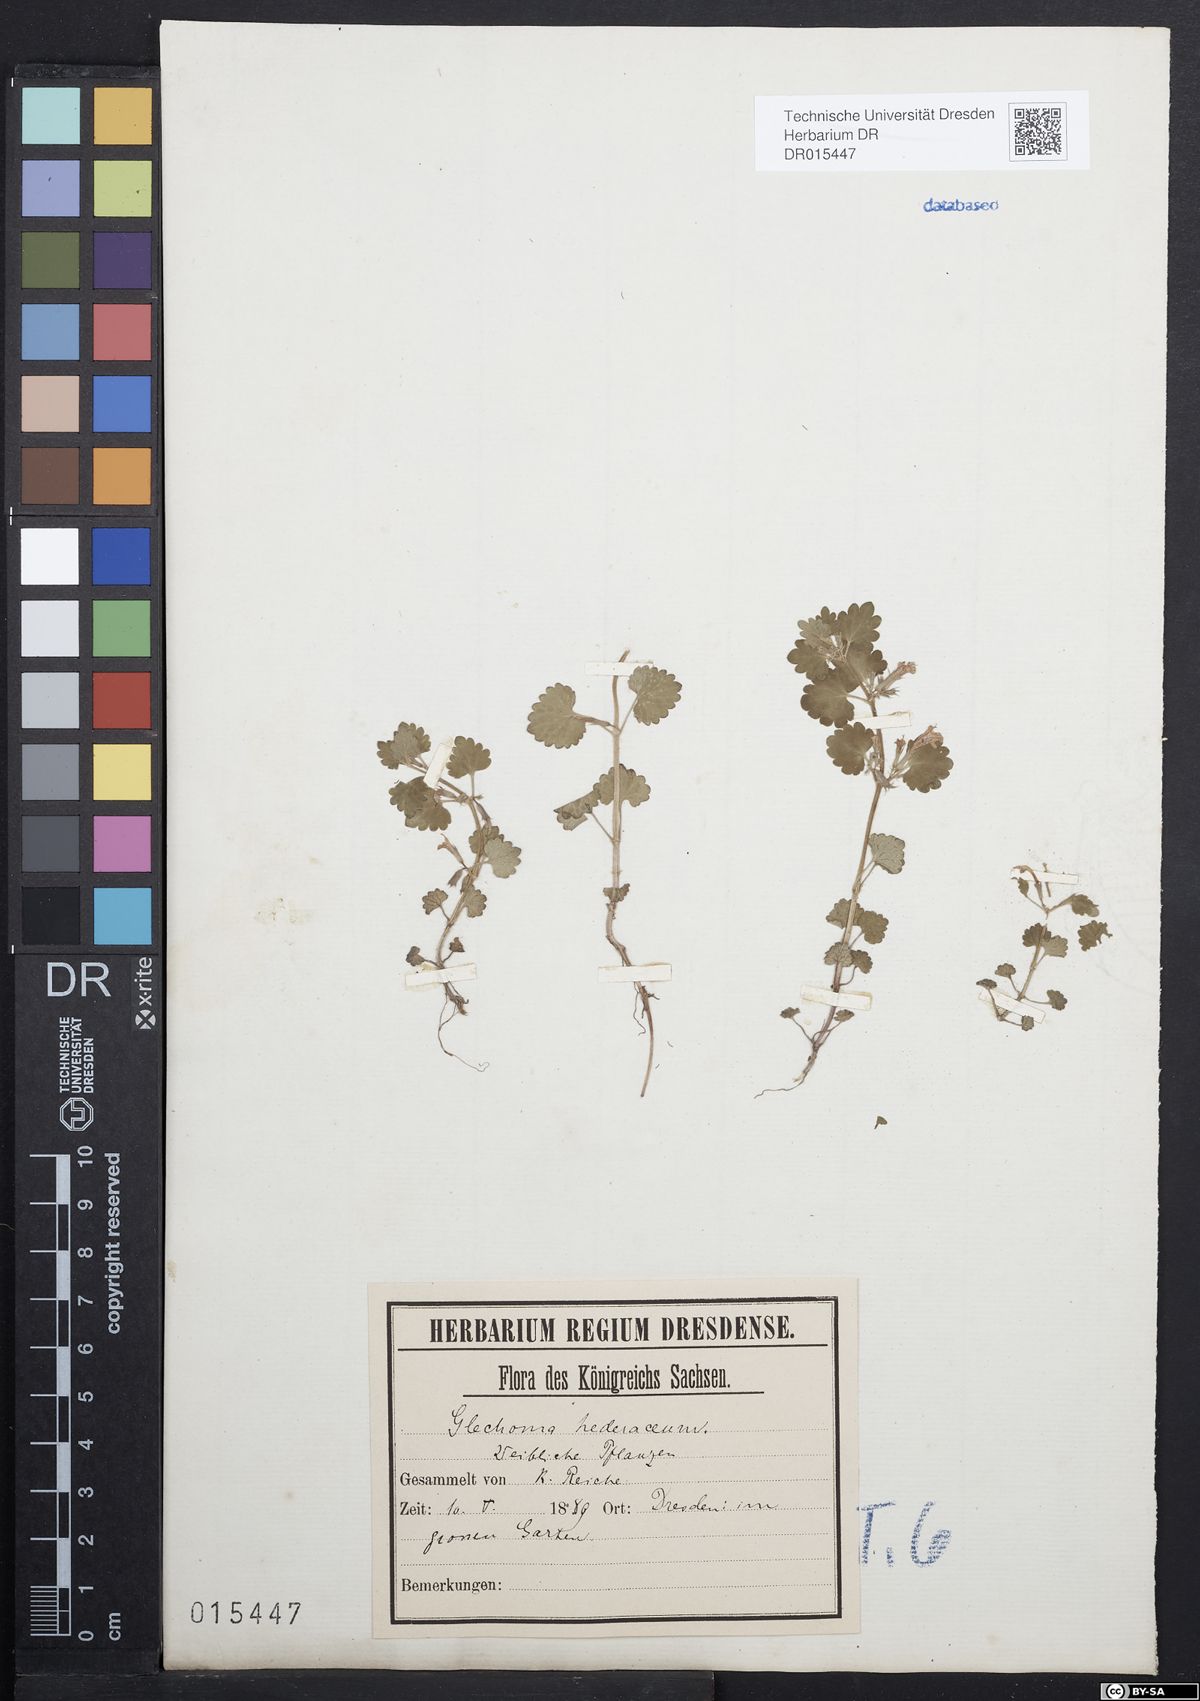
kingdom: Plantae
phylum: Tracheophyta
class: Magnoliopsida
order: Lamiales
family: Lamiaceae
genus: Glechoma
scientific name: Glechoma hederacea
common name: Ground ivy
